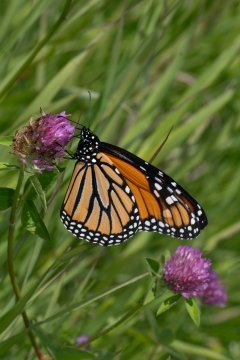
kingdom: Animalia
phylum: Arthropoda
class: Insecta
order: Lepidoptera
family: Nymphalidae
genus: Danaus
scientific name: Danaus plexippus
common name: Monarch
